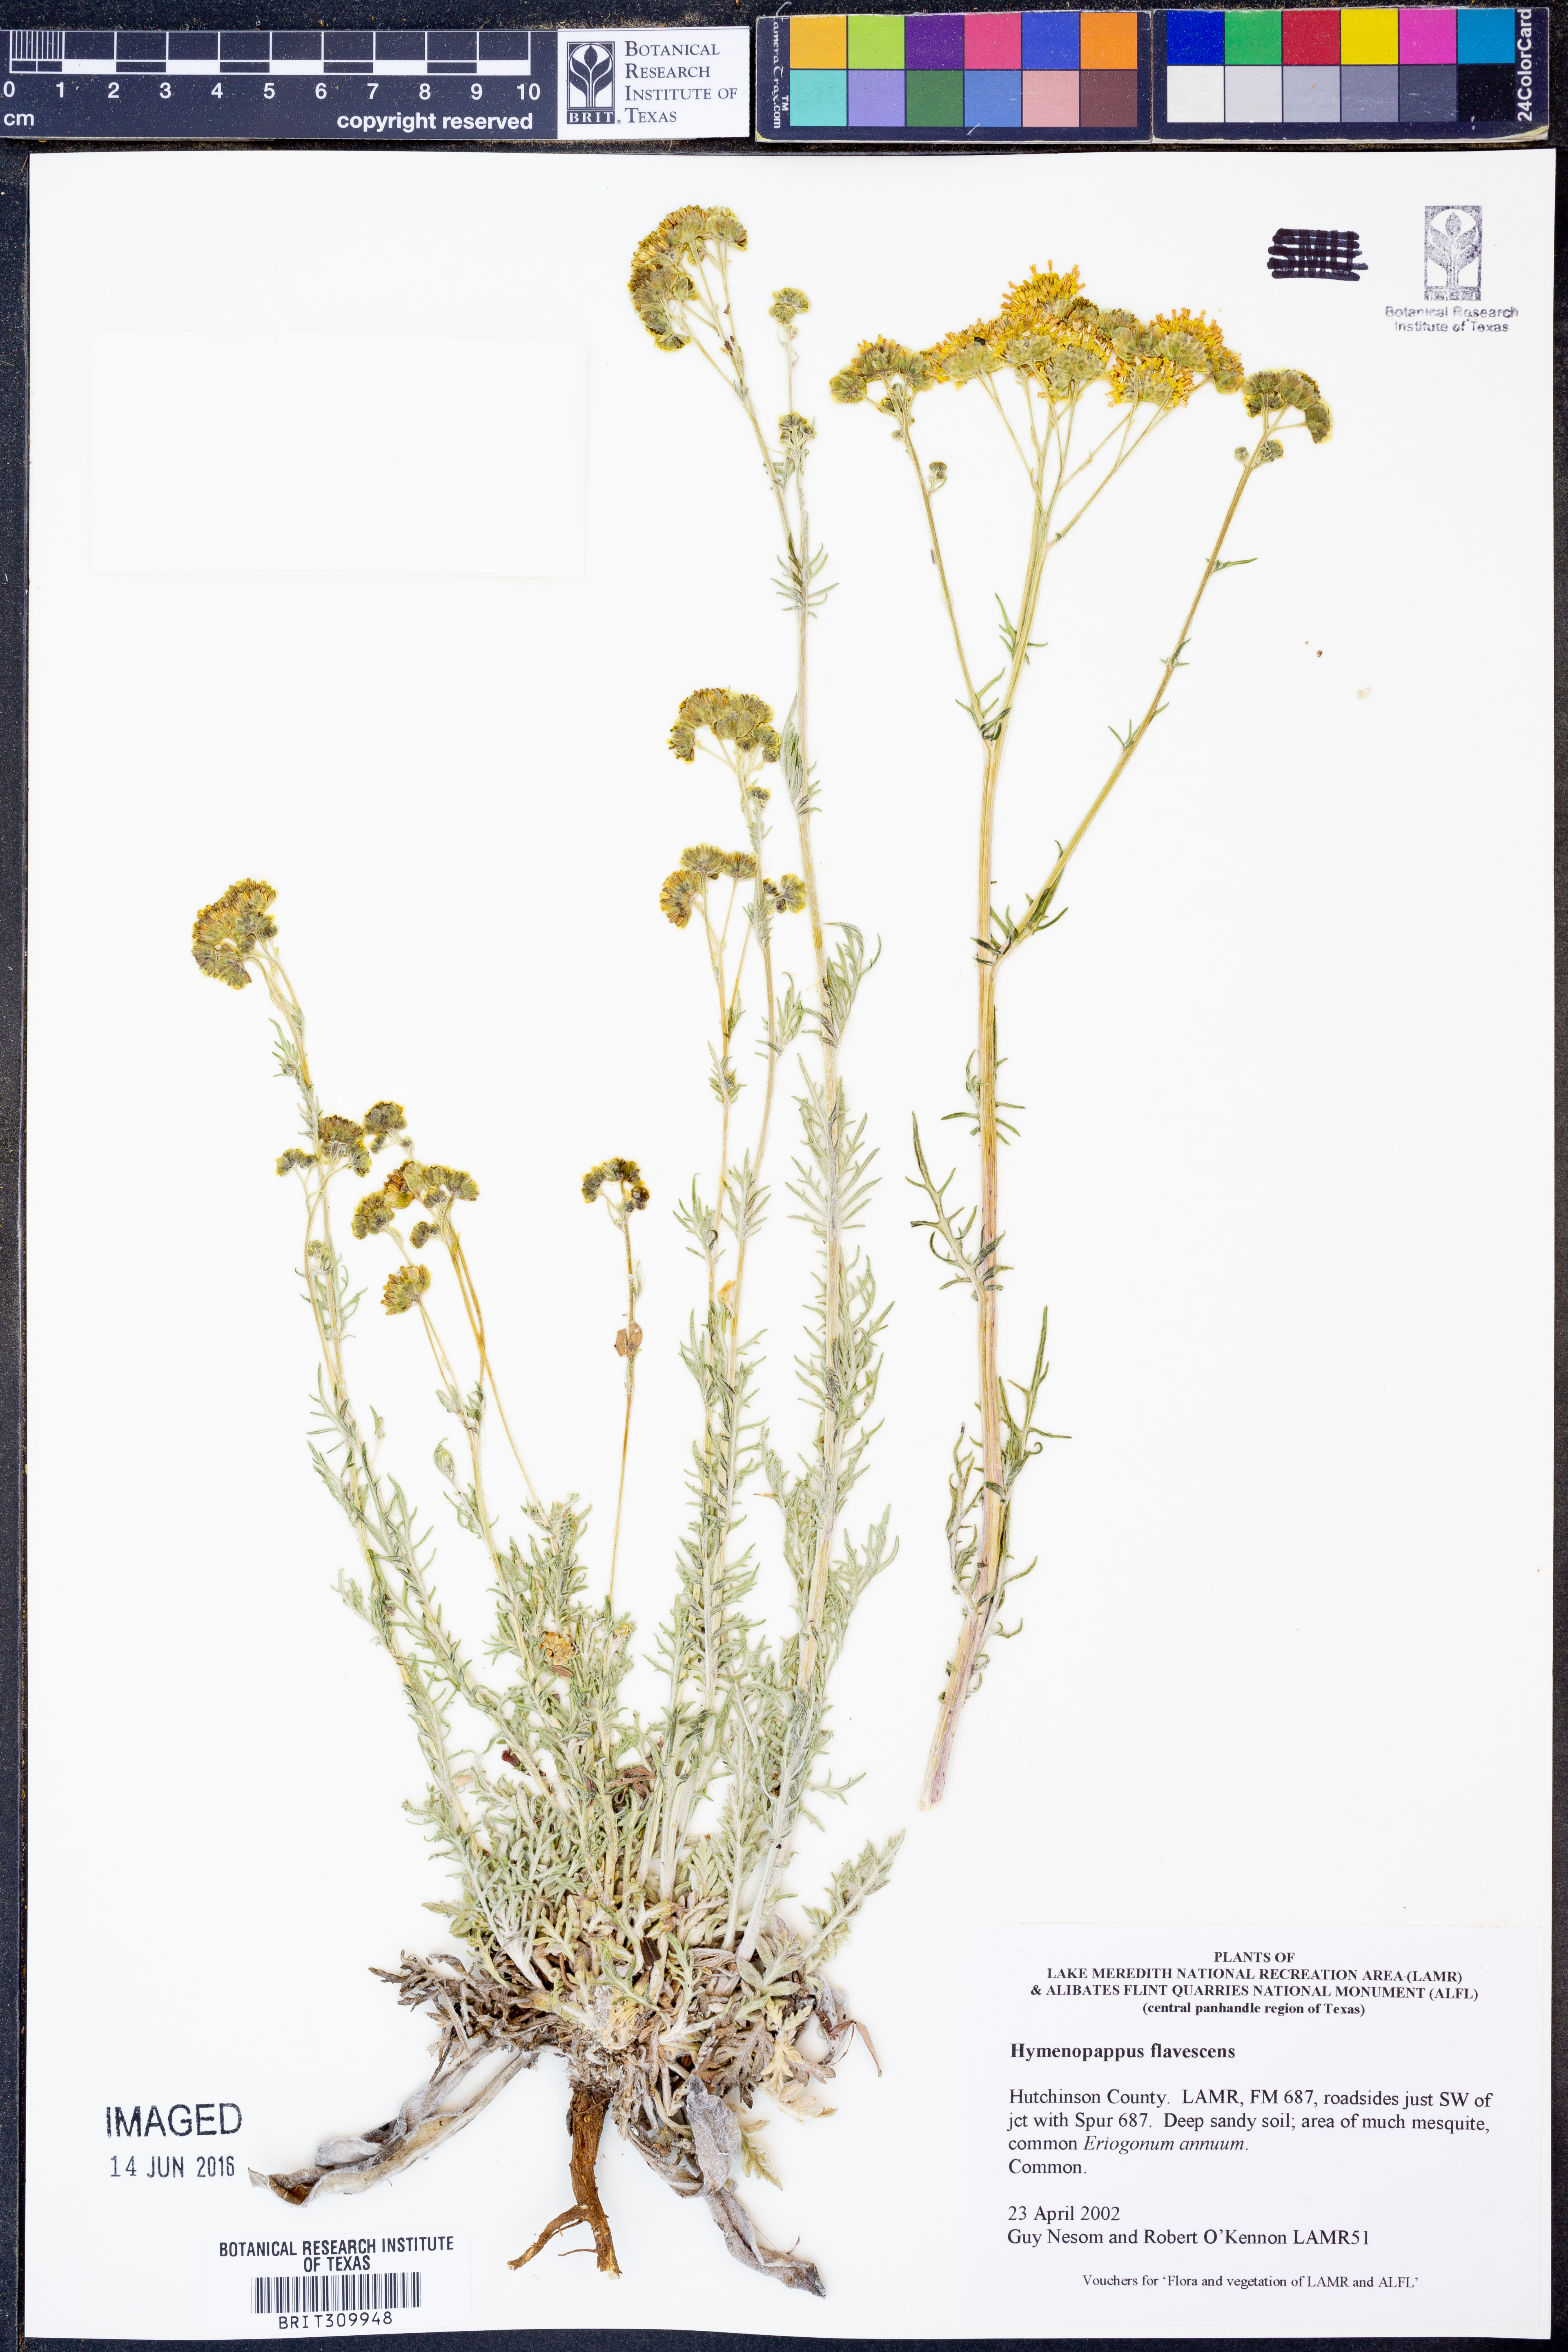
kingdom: Plantae
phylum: Tracheophyta
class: Magnoliopsida
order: Asterales
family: Asteraceae
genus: Hymenopappus
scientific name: Hymenopappus flavescens
